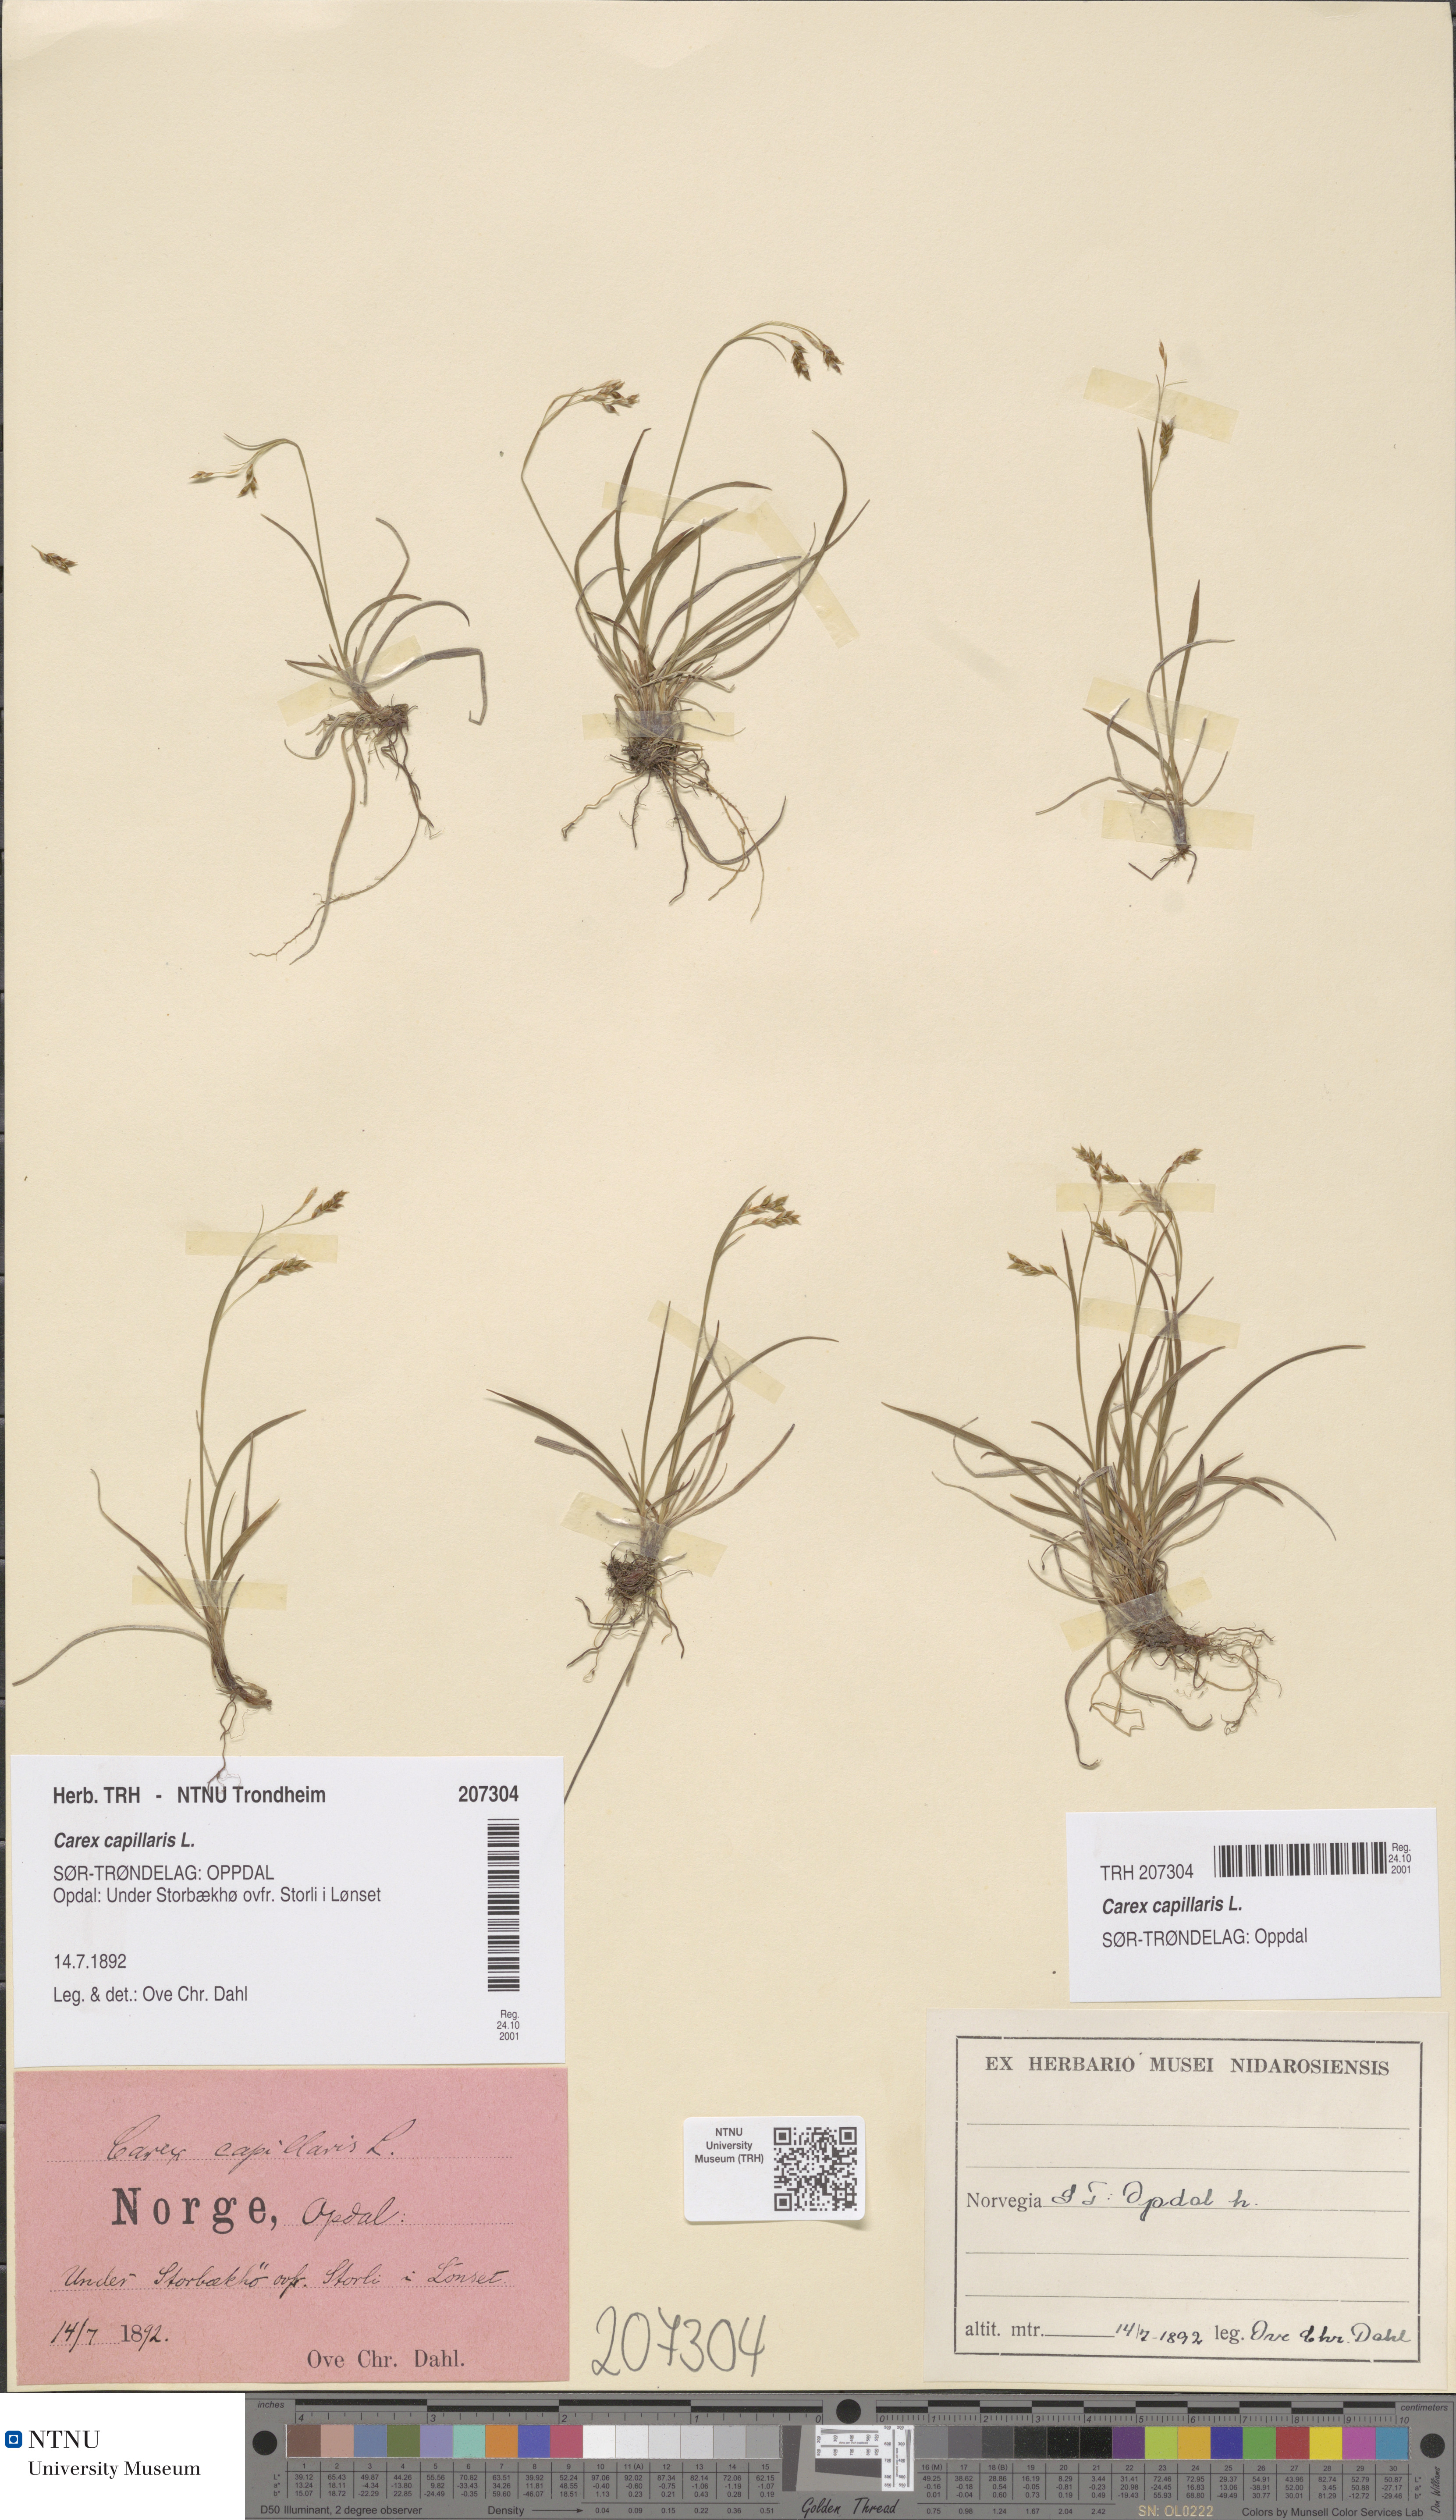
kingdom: Plantae
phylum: Tracheophyta
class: Liliopsida
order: Poales
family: Cyperaceae
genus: Carex
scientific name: Carex capillaris
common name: Hair sedge
